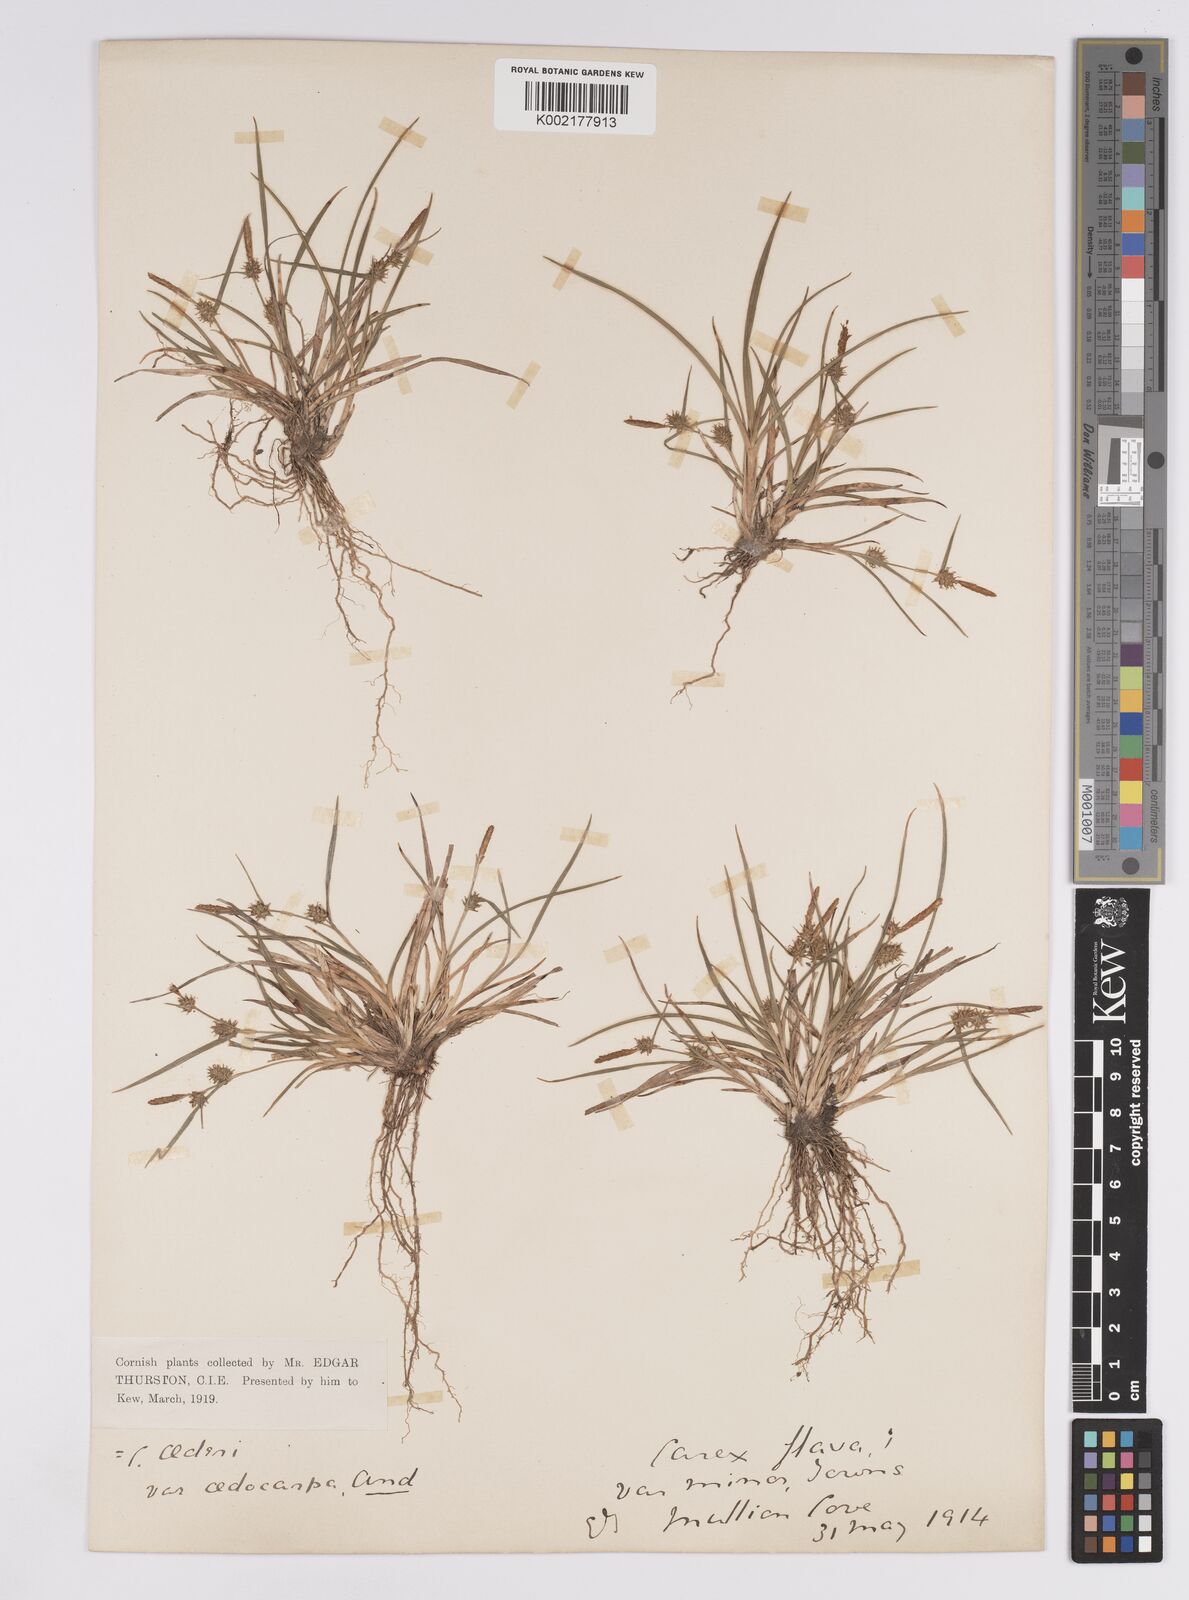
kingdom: Plantae
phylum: Tracheophyta
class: Liliopsida
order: Poales
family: Cyperaceae
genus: Carex
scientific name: Carex demissa
